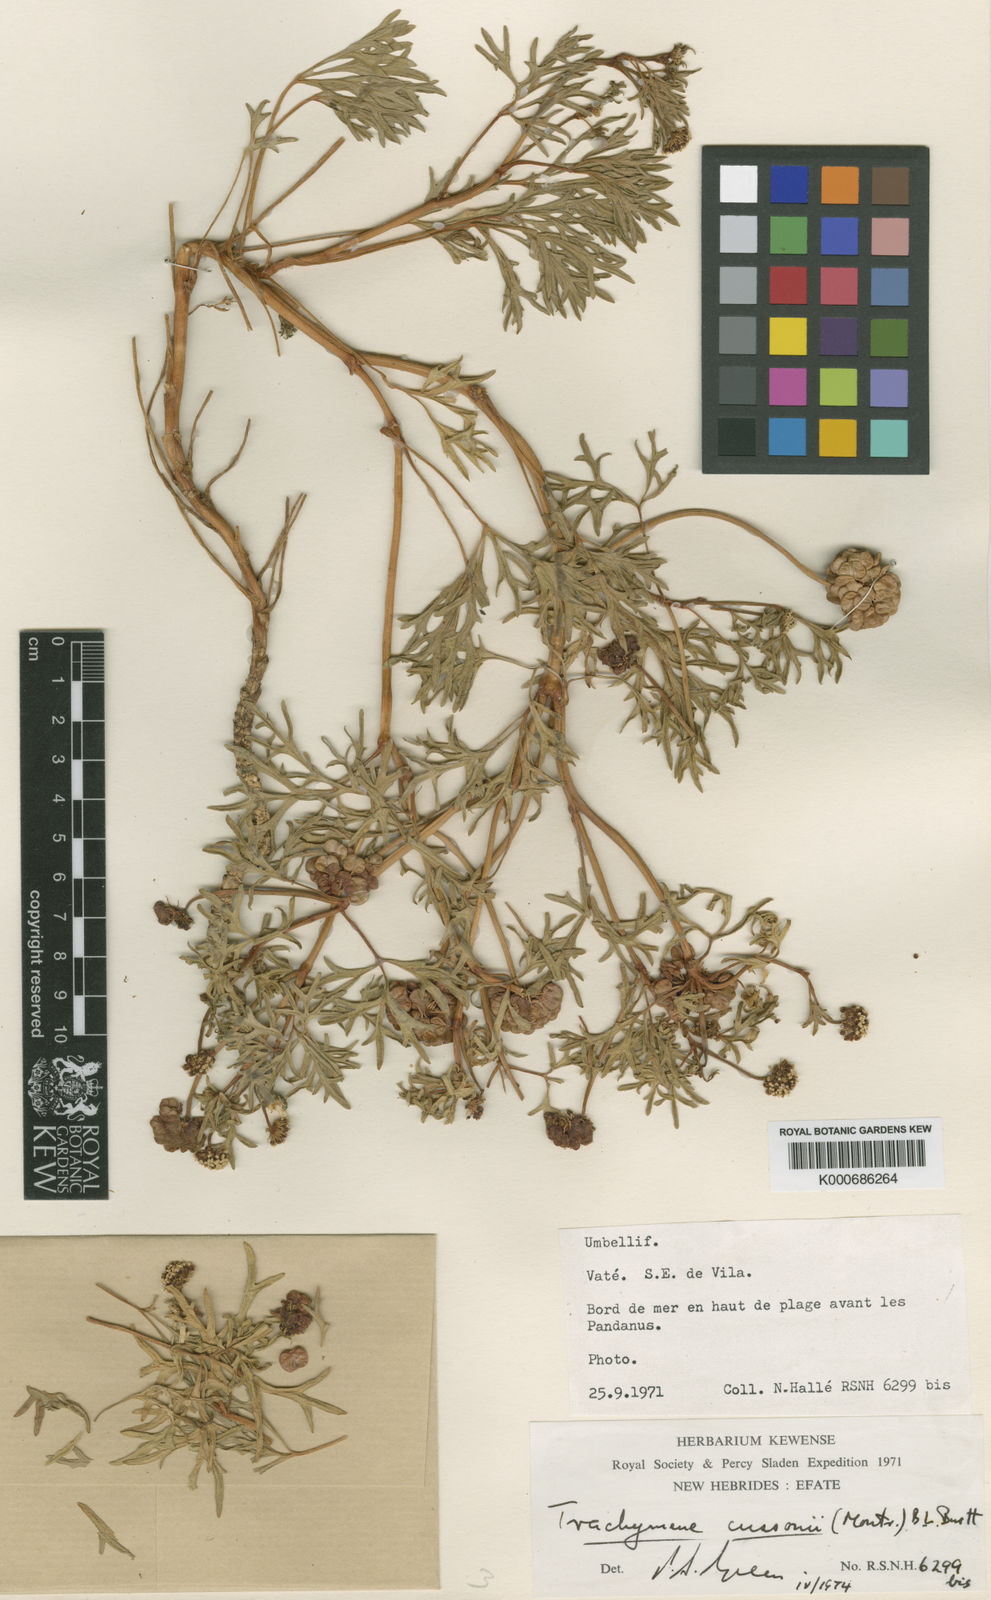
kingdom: Plantae
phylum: Tracheophyta
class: Magnoliopsida
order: Apiales
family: Araliaceae
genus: Trachymene
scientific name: Trachymene cussonii
